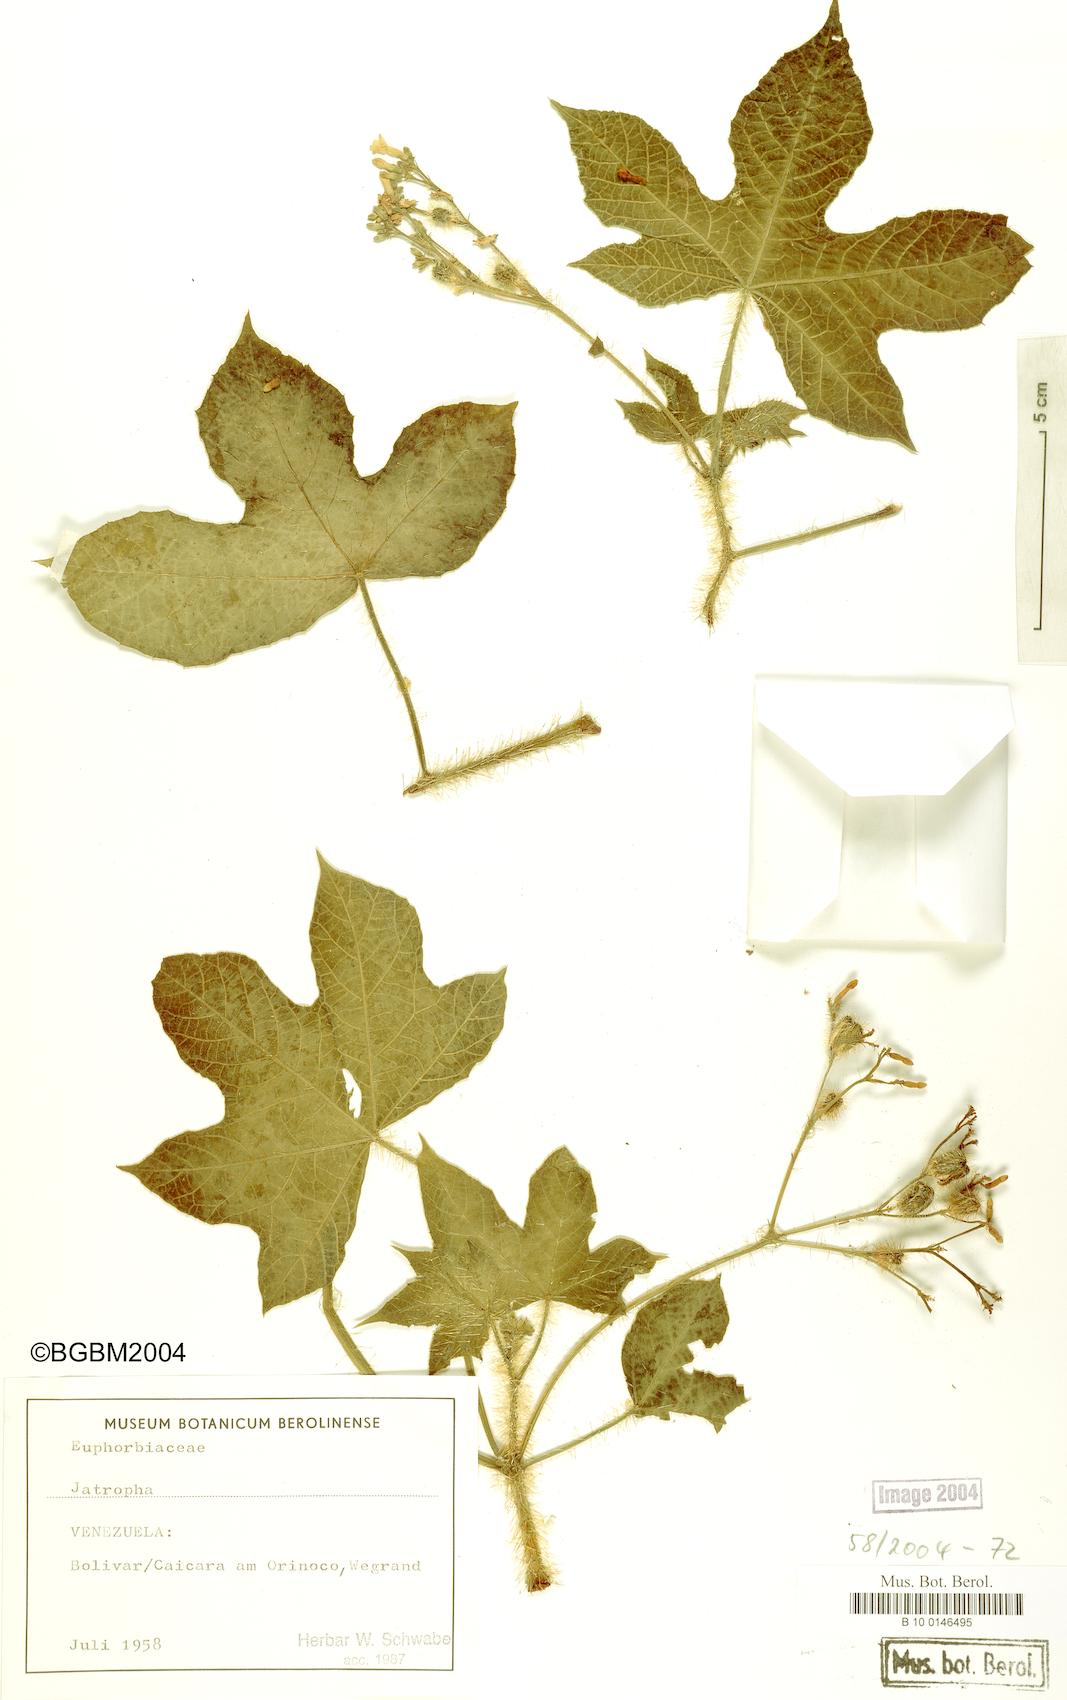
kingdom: Plantae
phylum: Tracheophyta
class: Magnoliopsida
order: Malpighiales
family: Euphorbiaceae
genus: Jatropha
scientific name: Jatropha
